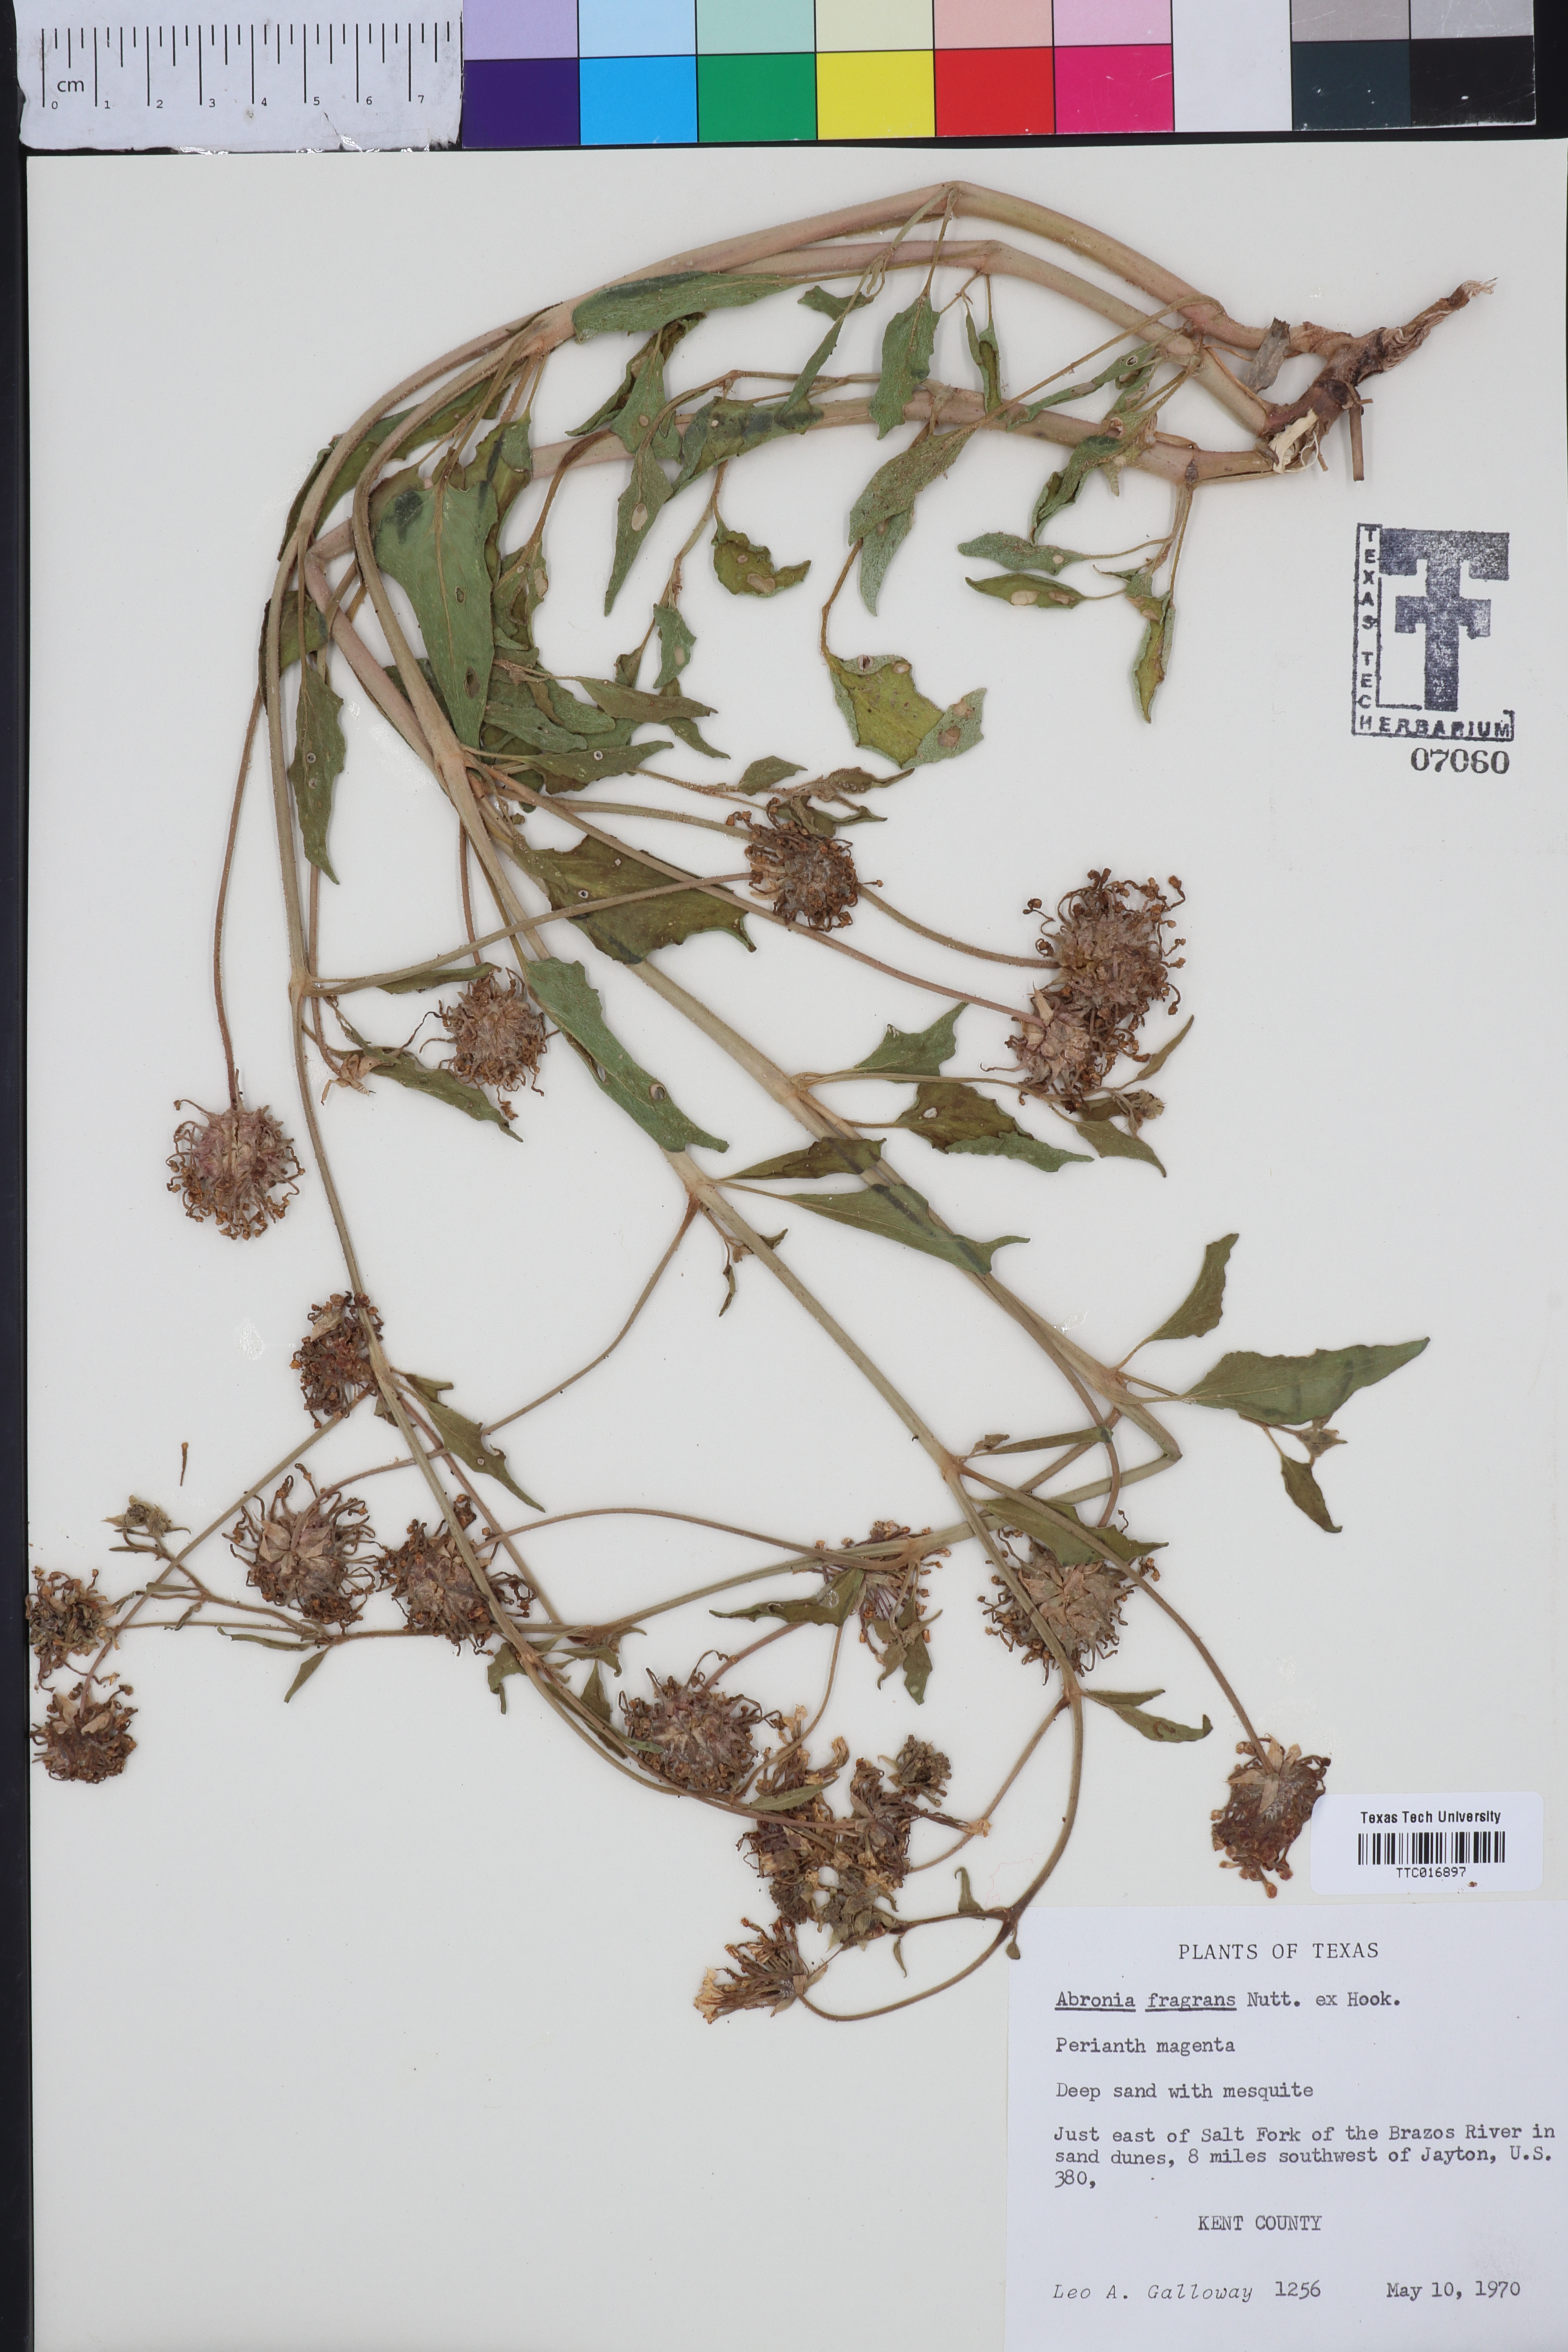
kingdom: Plantae
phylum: Tracheophyta
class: Magnoliopsida
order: Caryophyllales
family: Nyctaginaceae
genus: Abronia
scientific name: Abronia fragrans
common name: Fragrant sand-verbena
